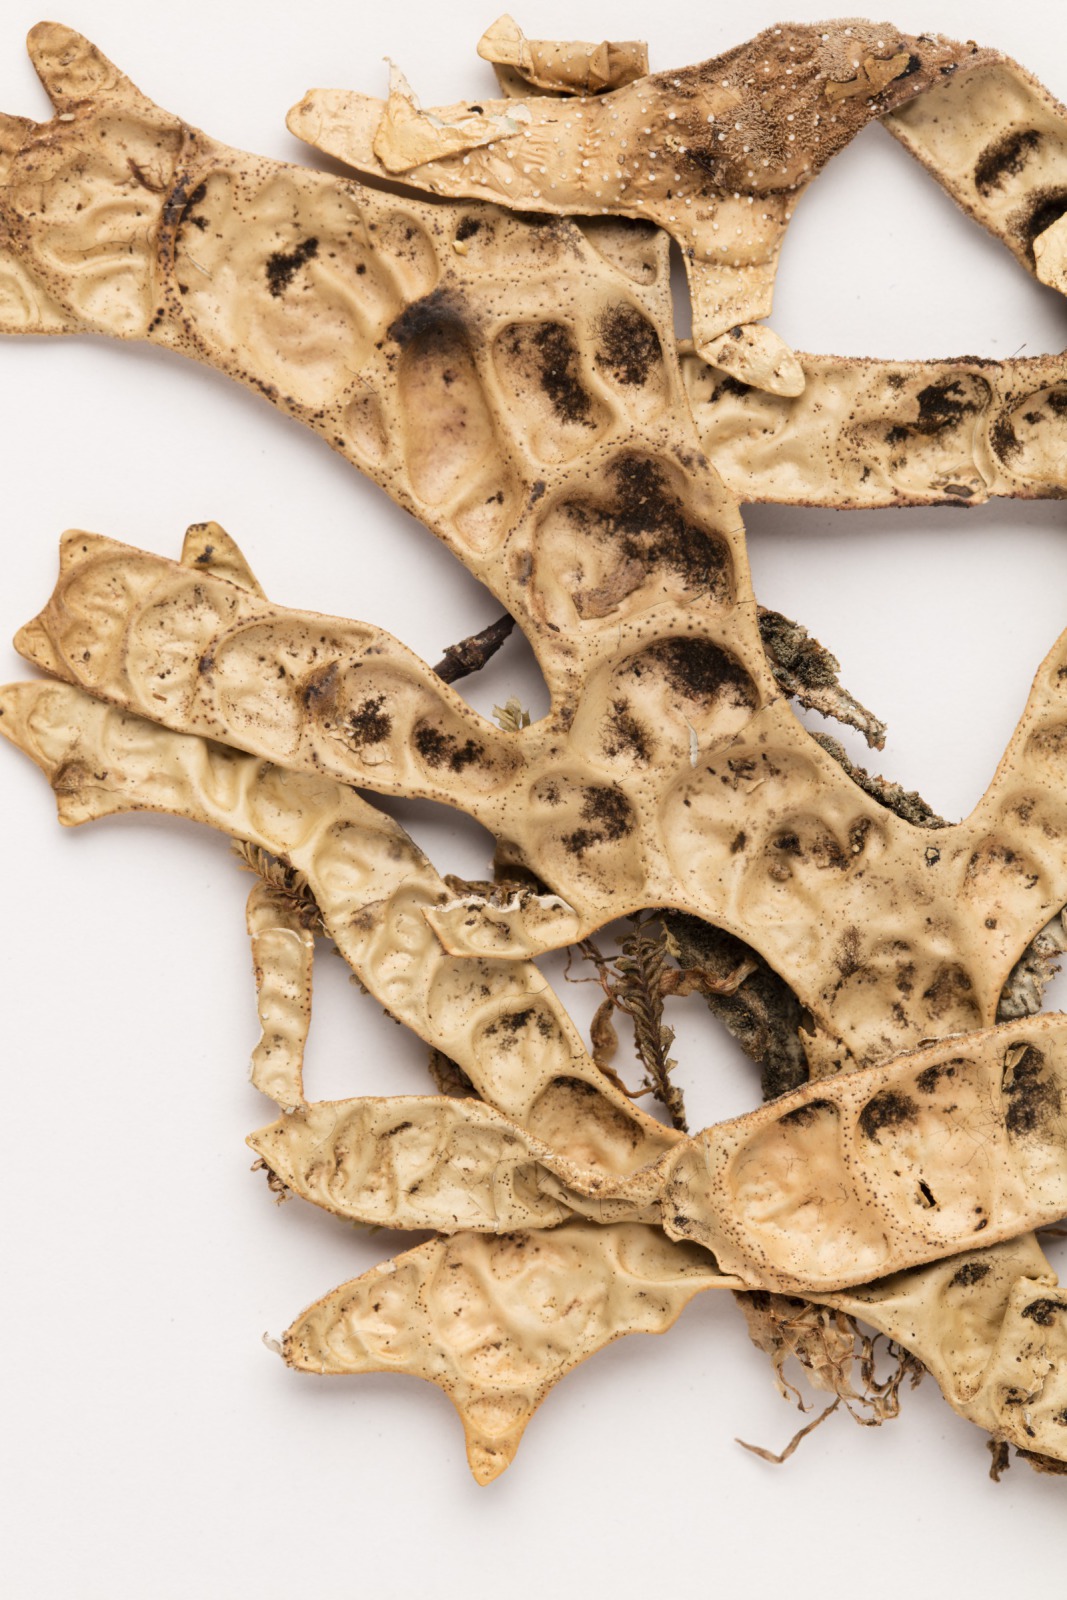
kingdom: Fungi
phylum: Ascomycota
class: Lecanoromycetes
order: Peltigerales
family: Lobariaceae
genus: Pseudocyphellaria
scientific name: Pseudocyphellaria billardierei
